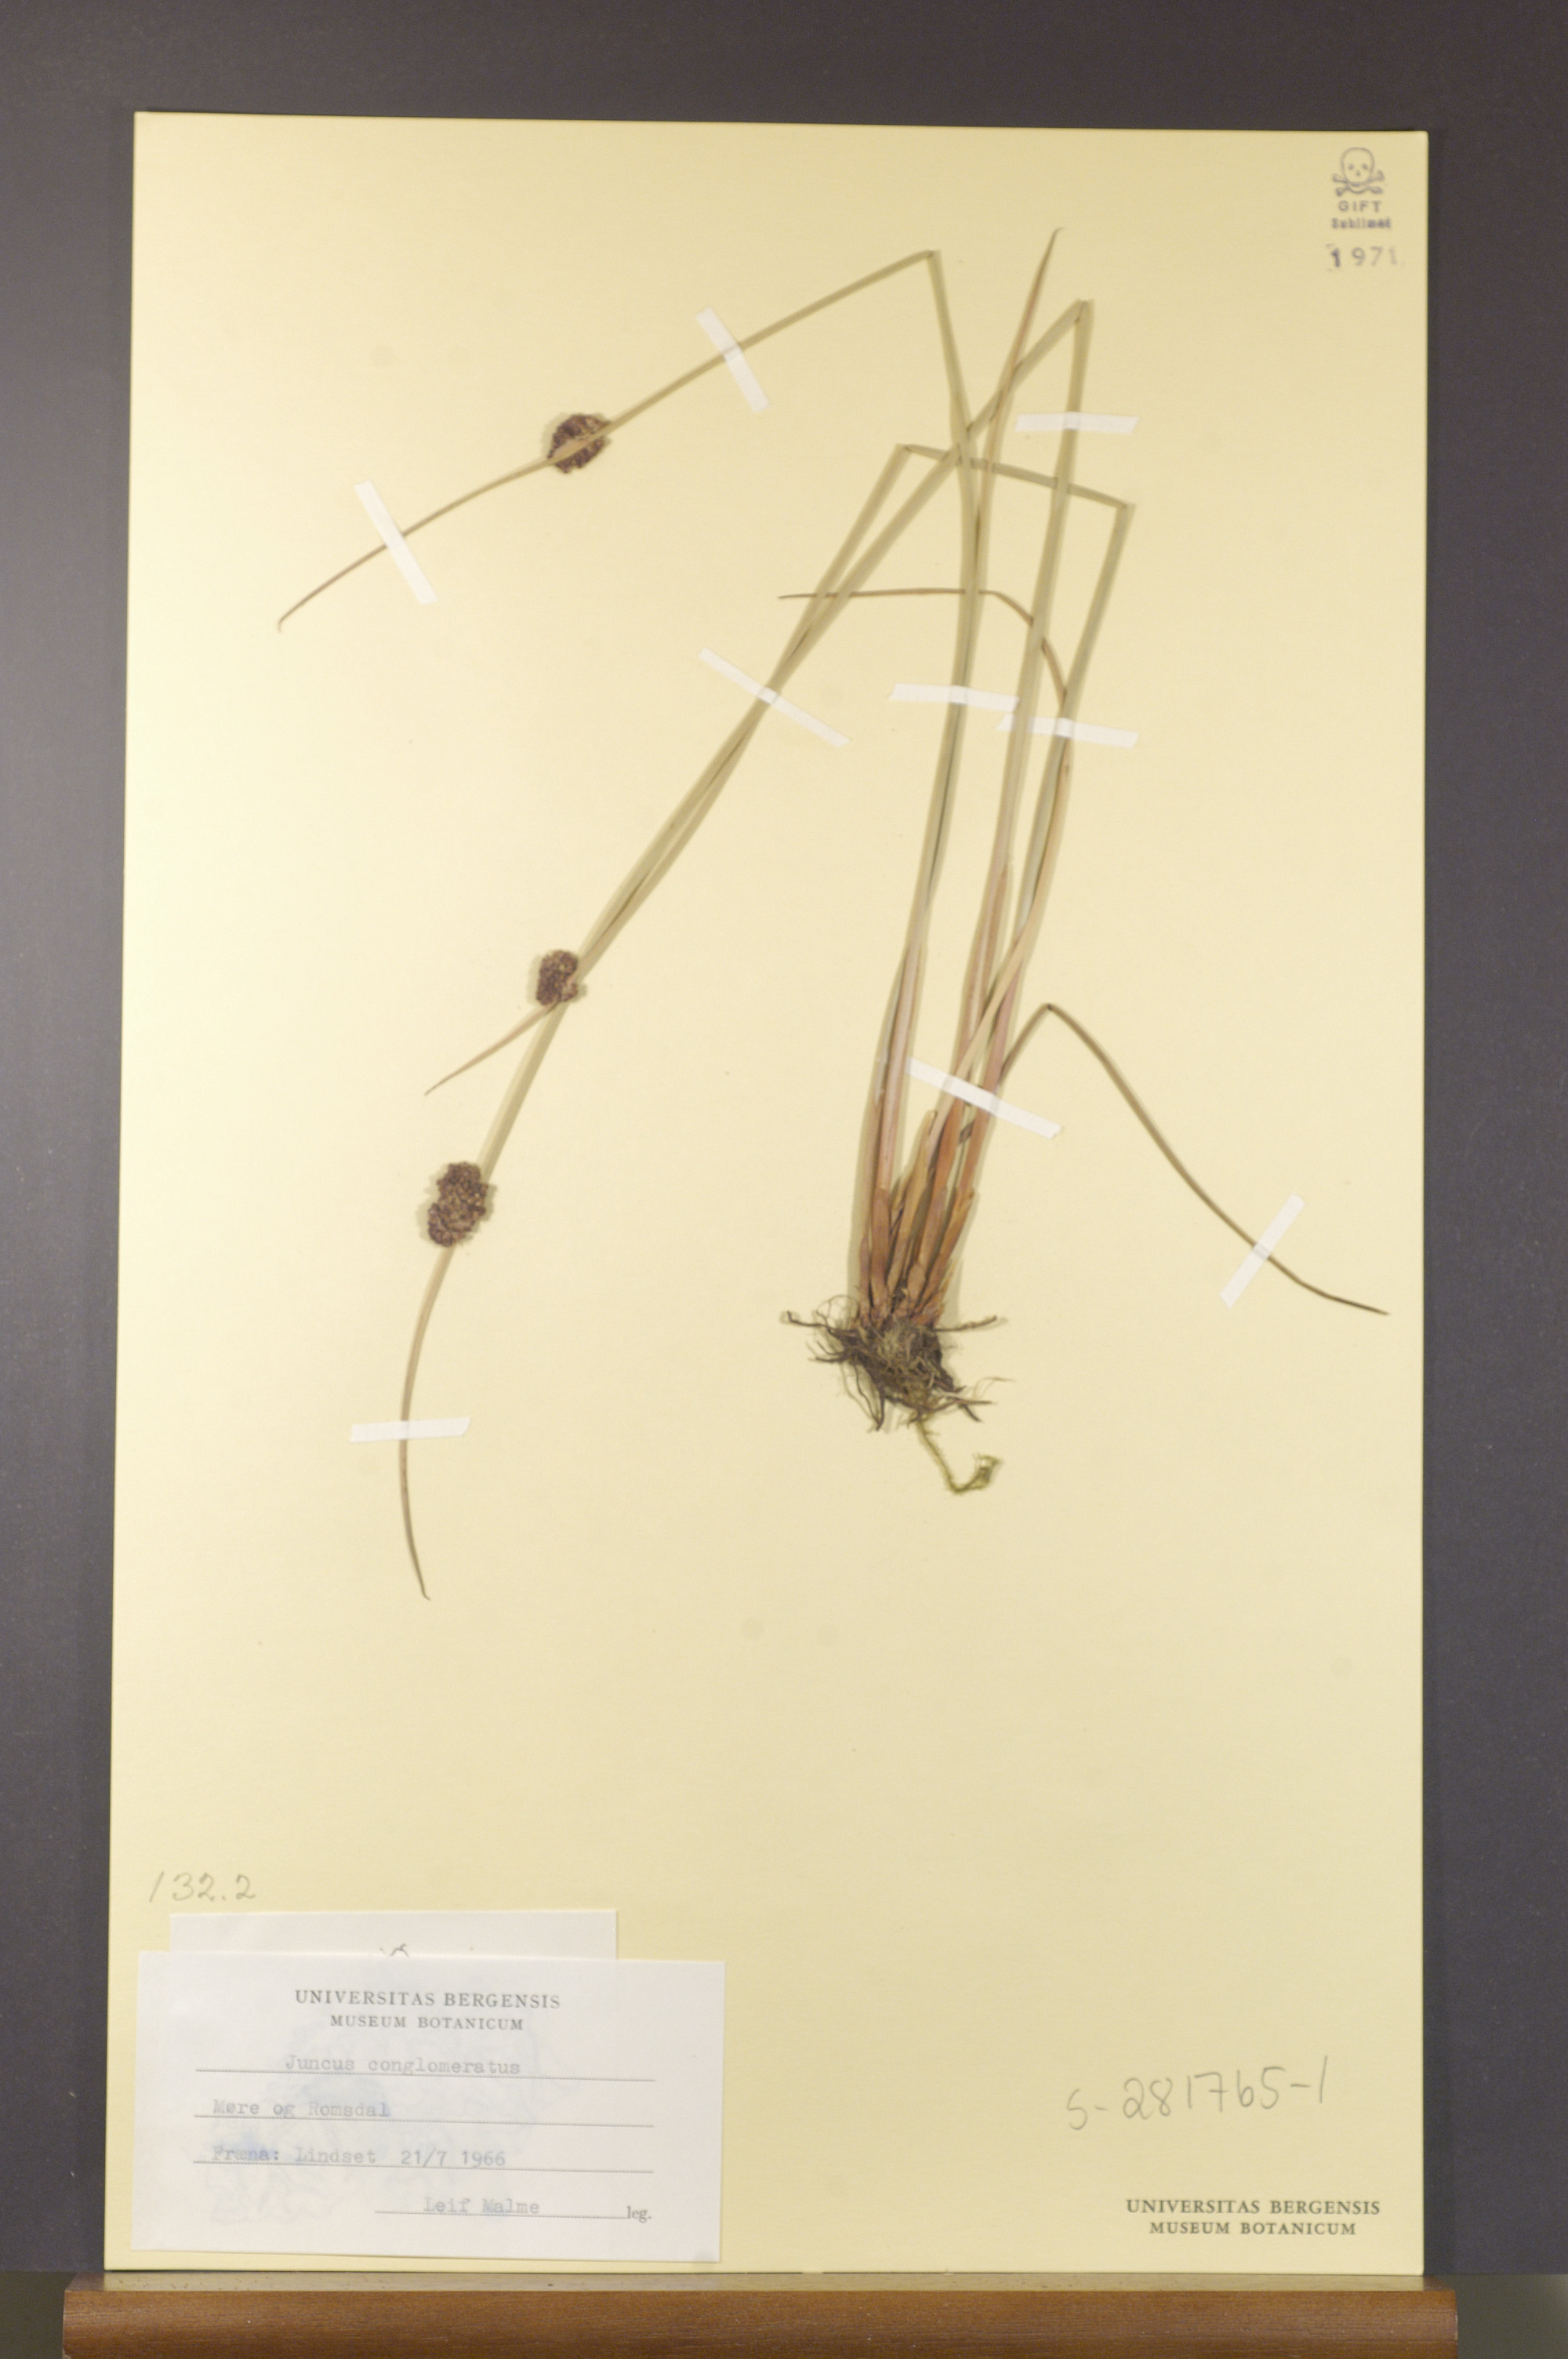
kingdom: Plantae
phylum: Tracheophyta
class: Liliopsida
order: Poales
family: Juncaceae
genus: Juncus
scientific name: Juncus conglomeratus
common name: Compact rush
